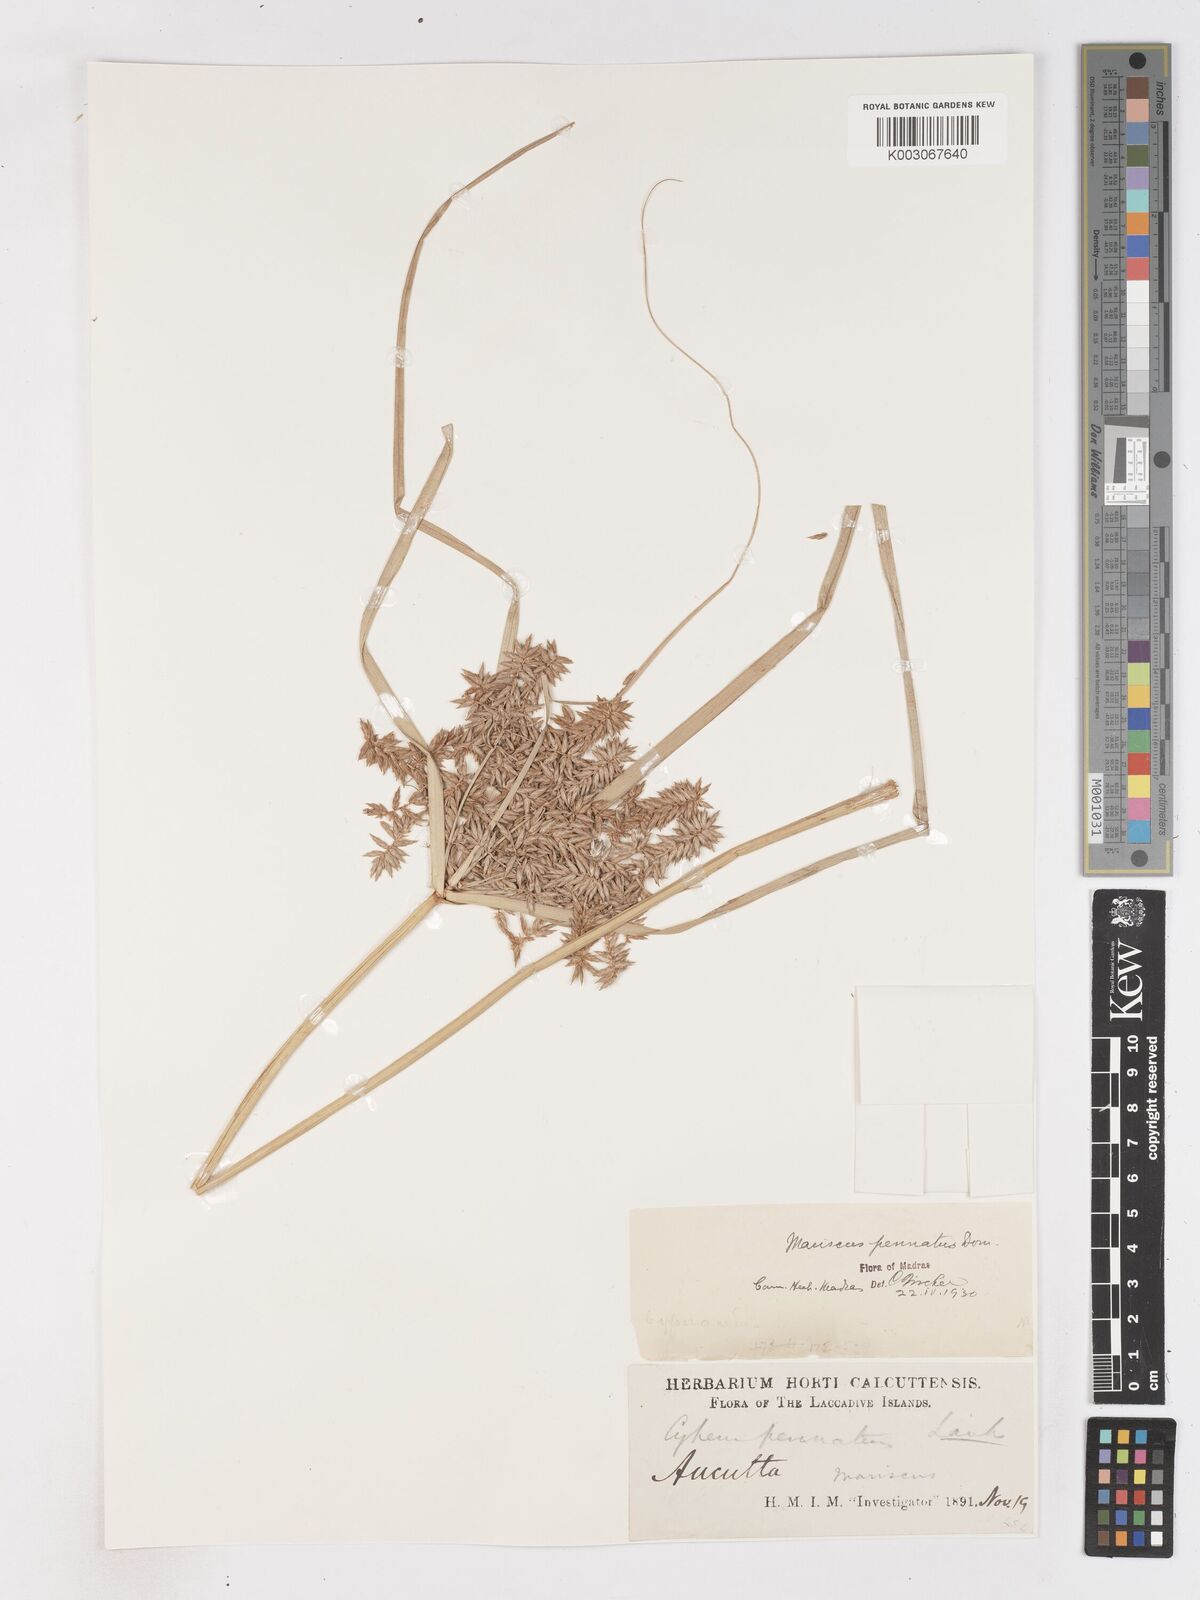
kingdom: Plantae
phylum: Tracheophyta
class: Liliopsida
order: Poales
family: Cyperaceae
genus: Cyperus
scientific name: Cyperus javanicus
